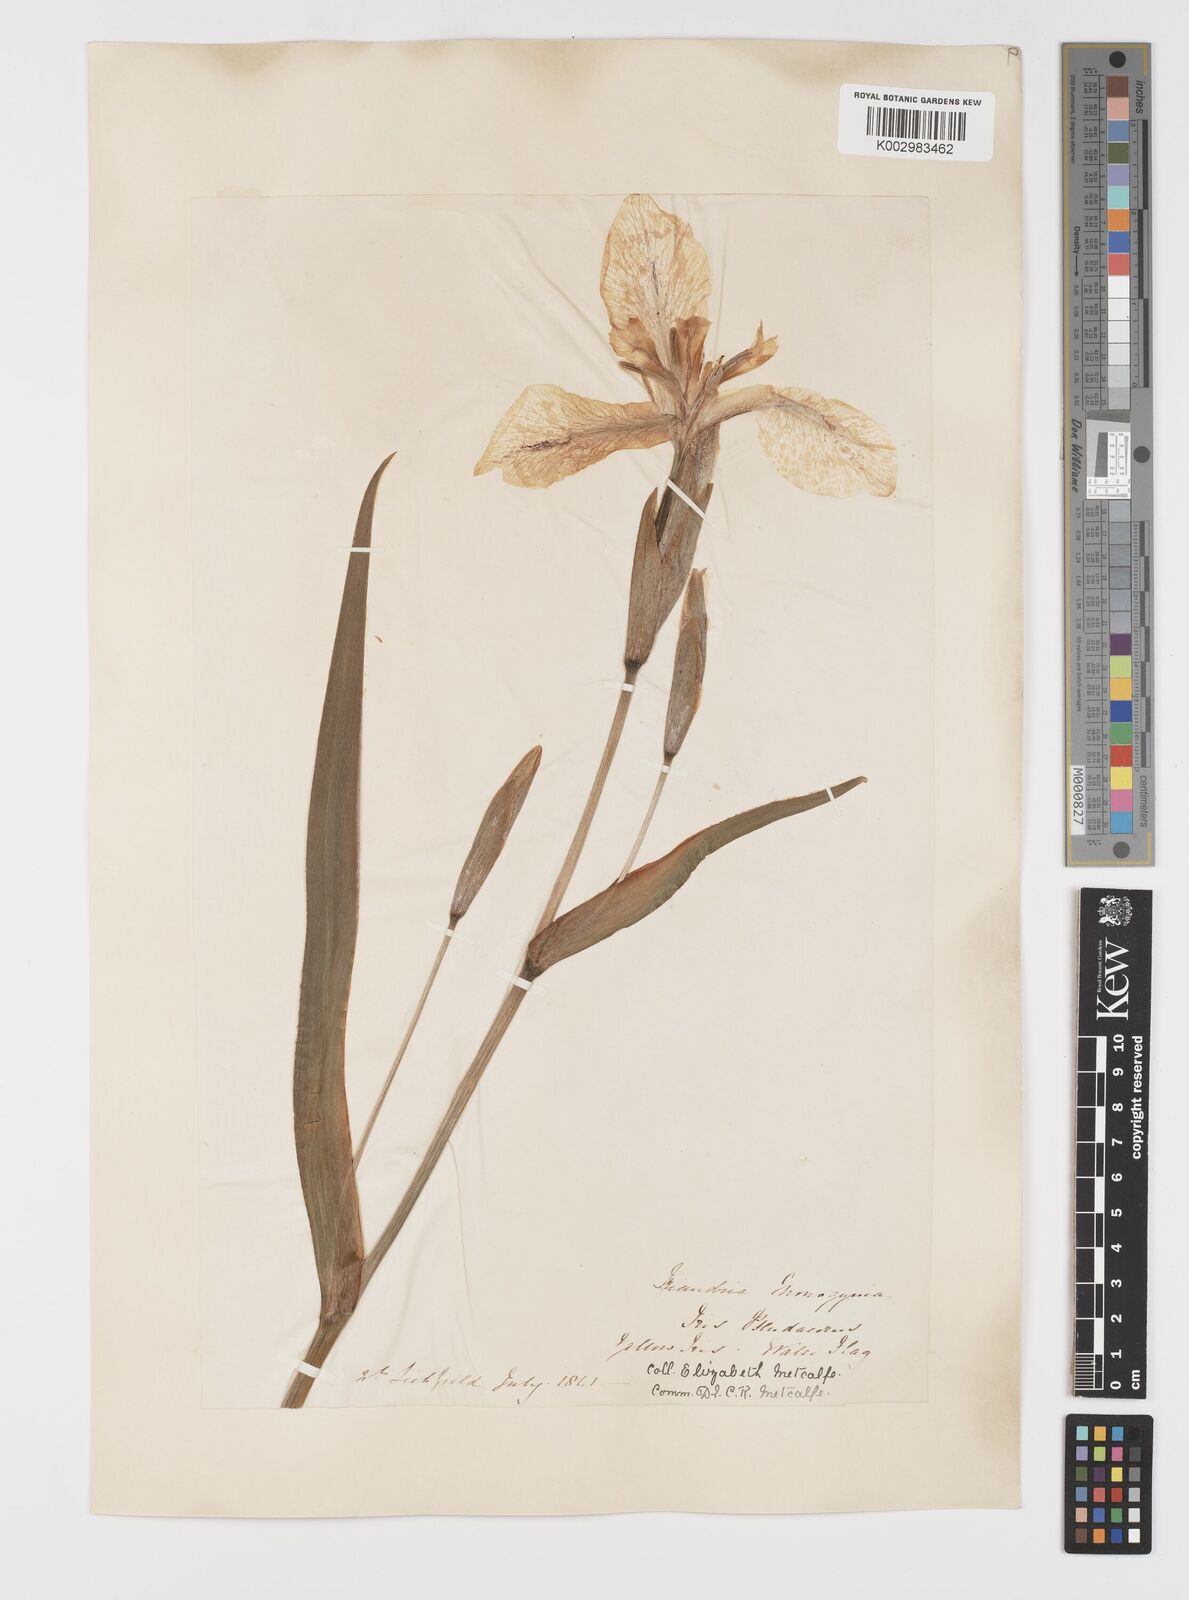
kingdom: Plantae
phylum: Tracheophyta
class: Liliopsida
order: Asparagales
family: Iridaceae
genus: Iris
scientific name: Iris pseudacorus
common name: Yellow flag
